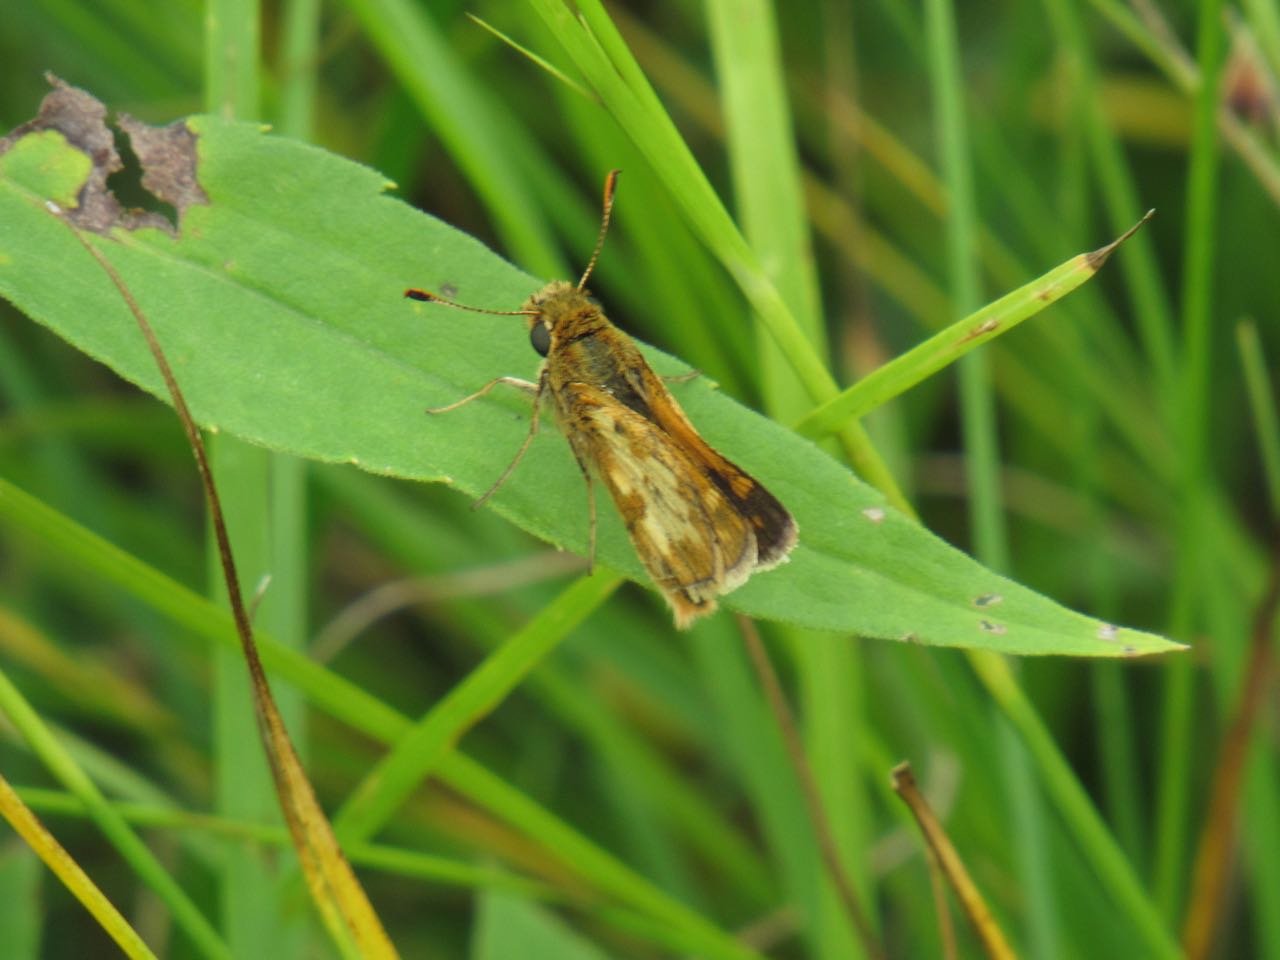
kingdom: Animalia
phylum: Arthropoda
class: Insecta
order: Lepidoptera
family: Hesperiidae
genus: Polites
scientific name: Polites coras
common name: Peck's Skipper
